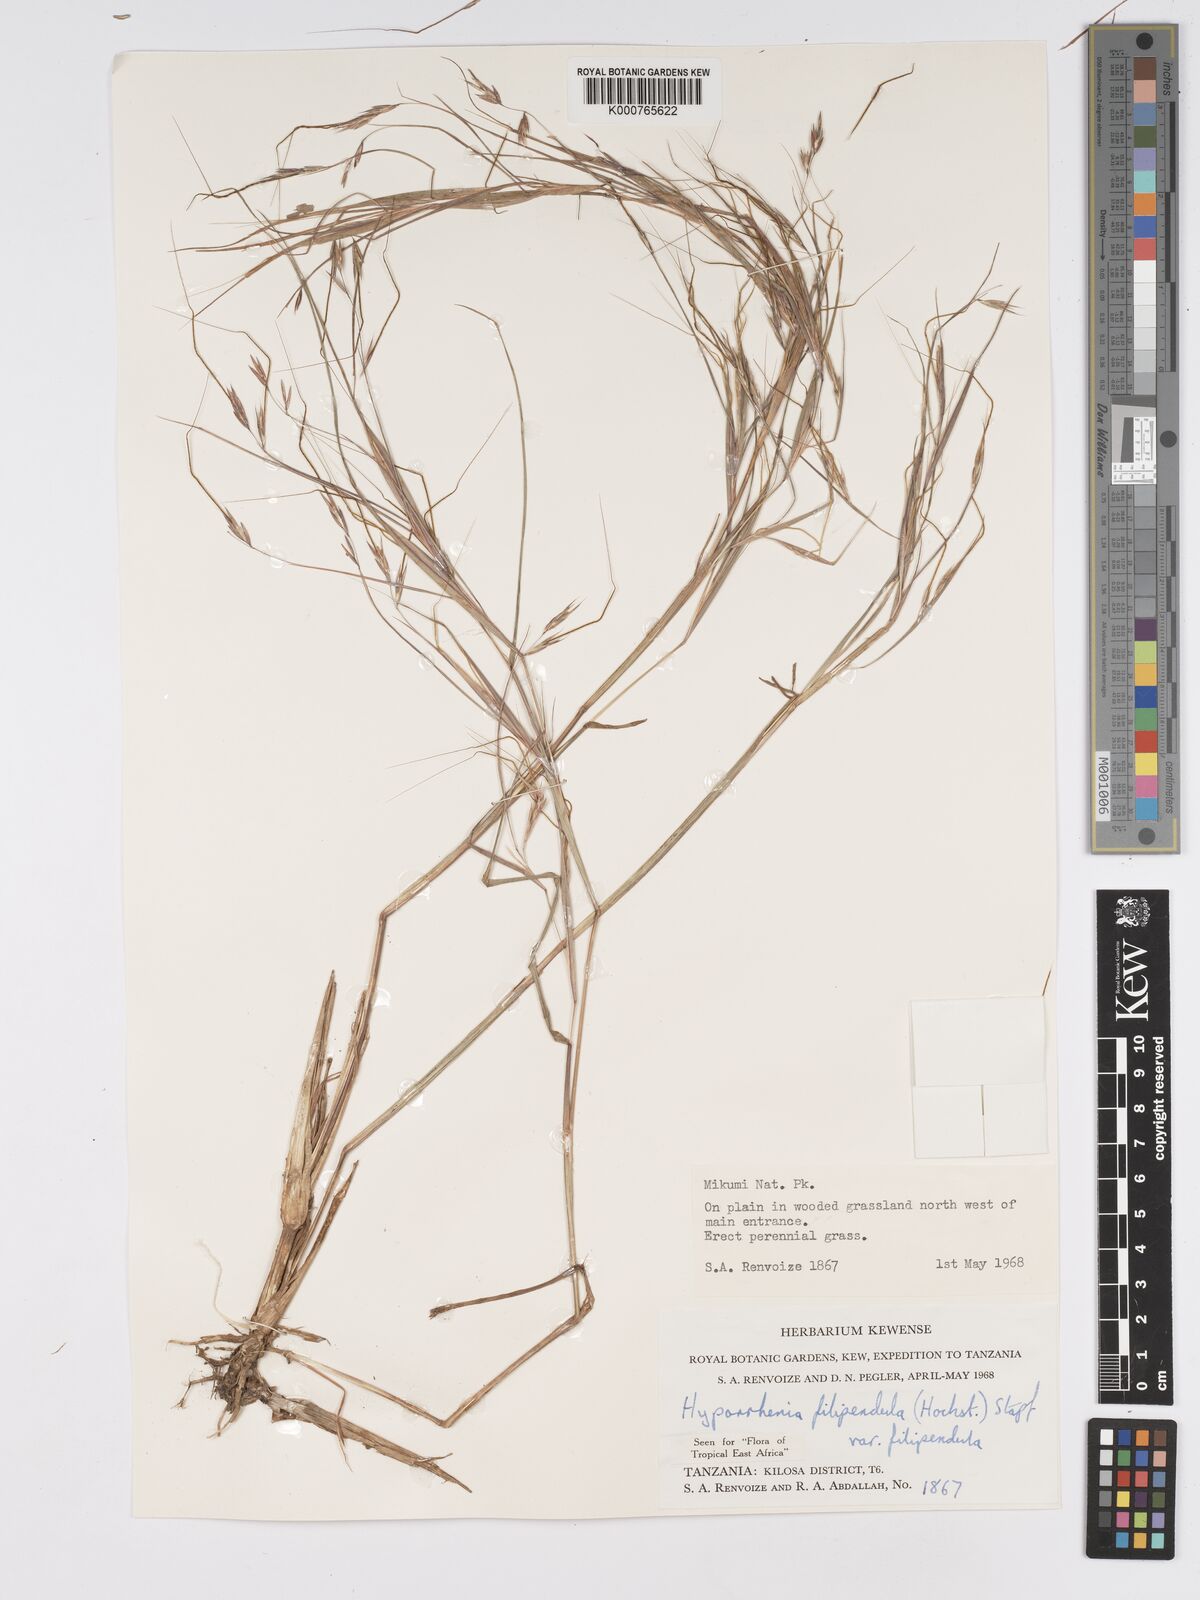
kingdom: Plantae
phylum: Tracheophyta
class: Liliopsida
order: Poales
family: Poaceae
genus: Hyparrhenia
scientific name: Hyparrhenia filipendula
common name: Tambookie grass
